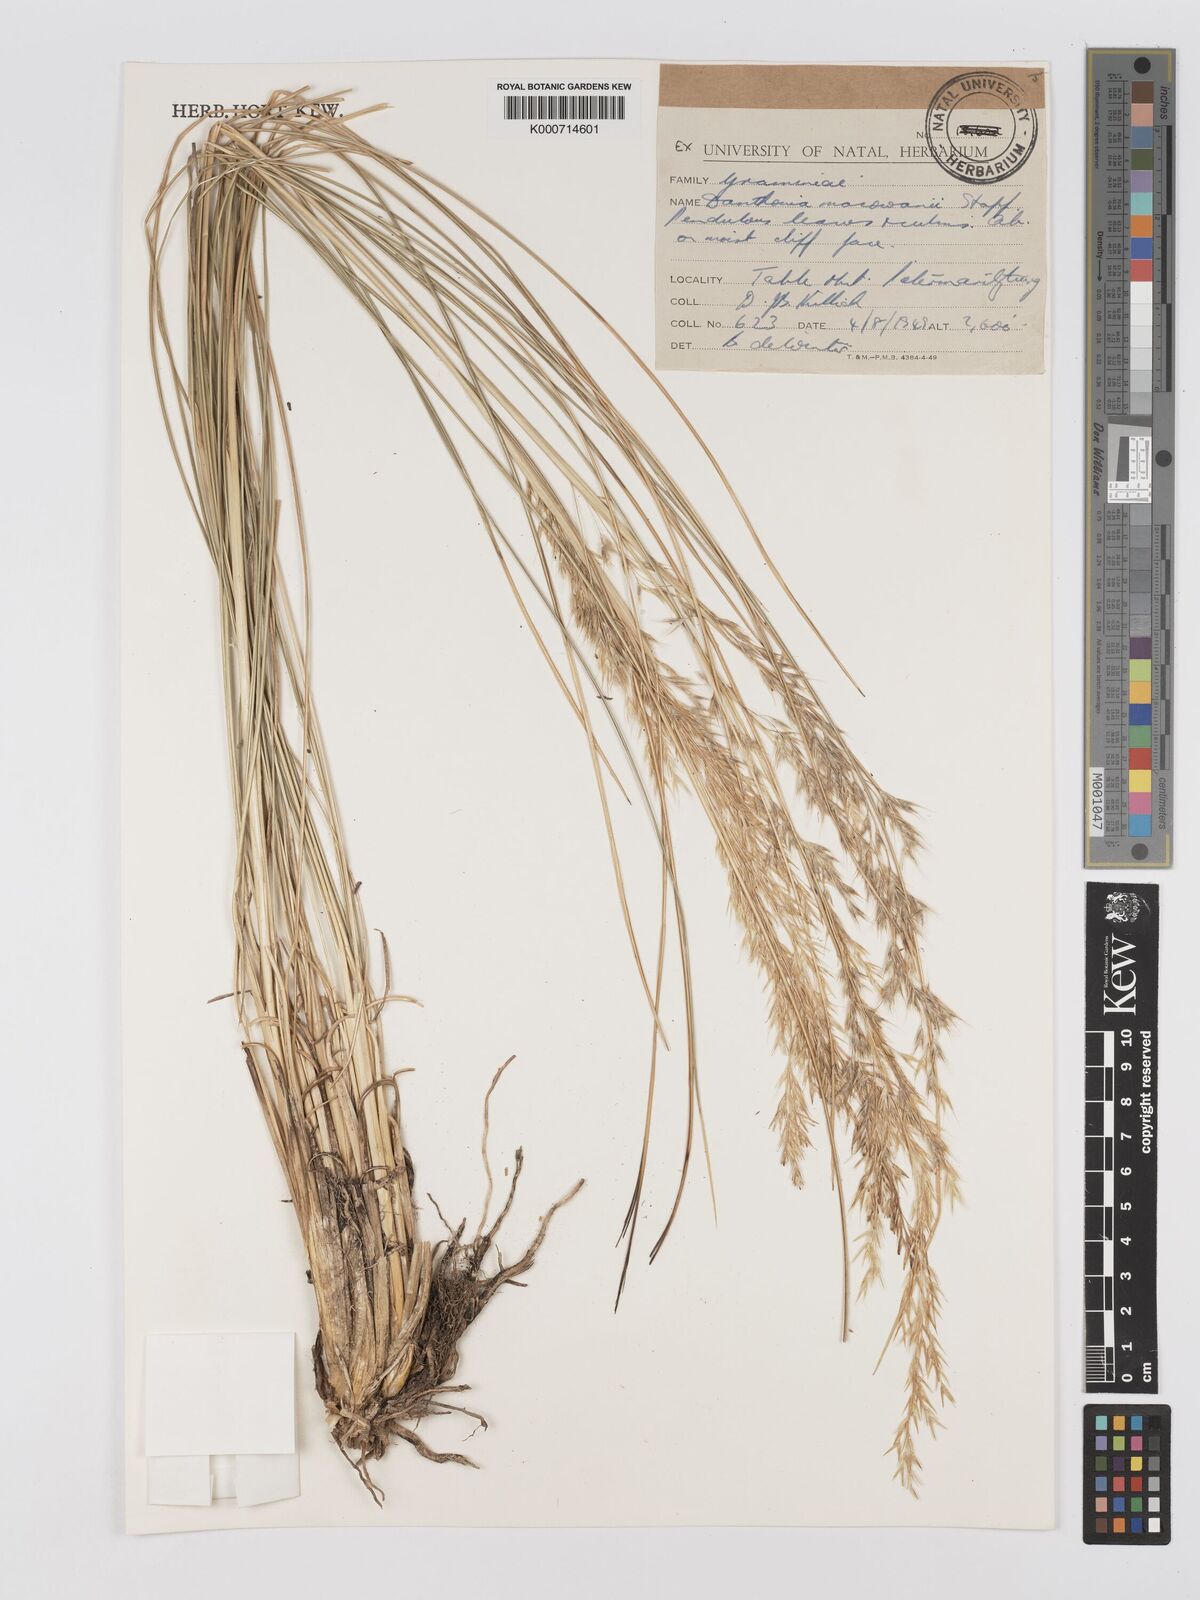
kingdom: Plantae
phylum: Tracheophyta
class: Liliopsida
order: Poales
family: Poaceae
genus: Rytidosperma
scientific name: Rytidosperma
